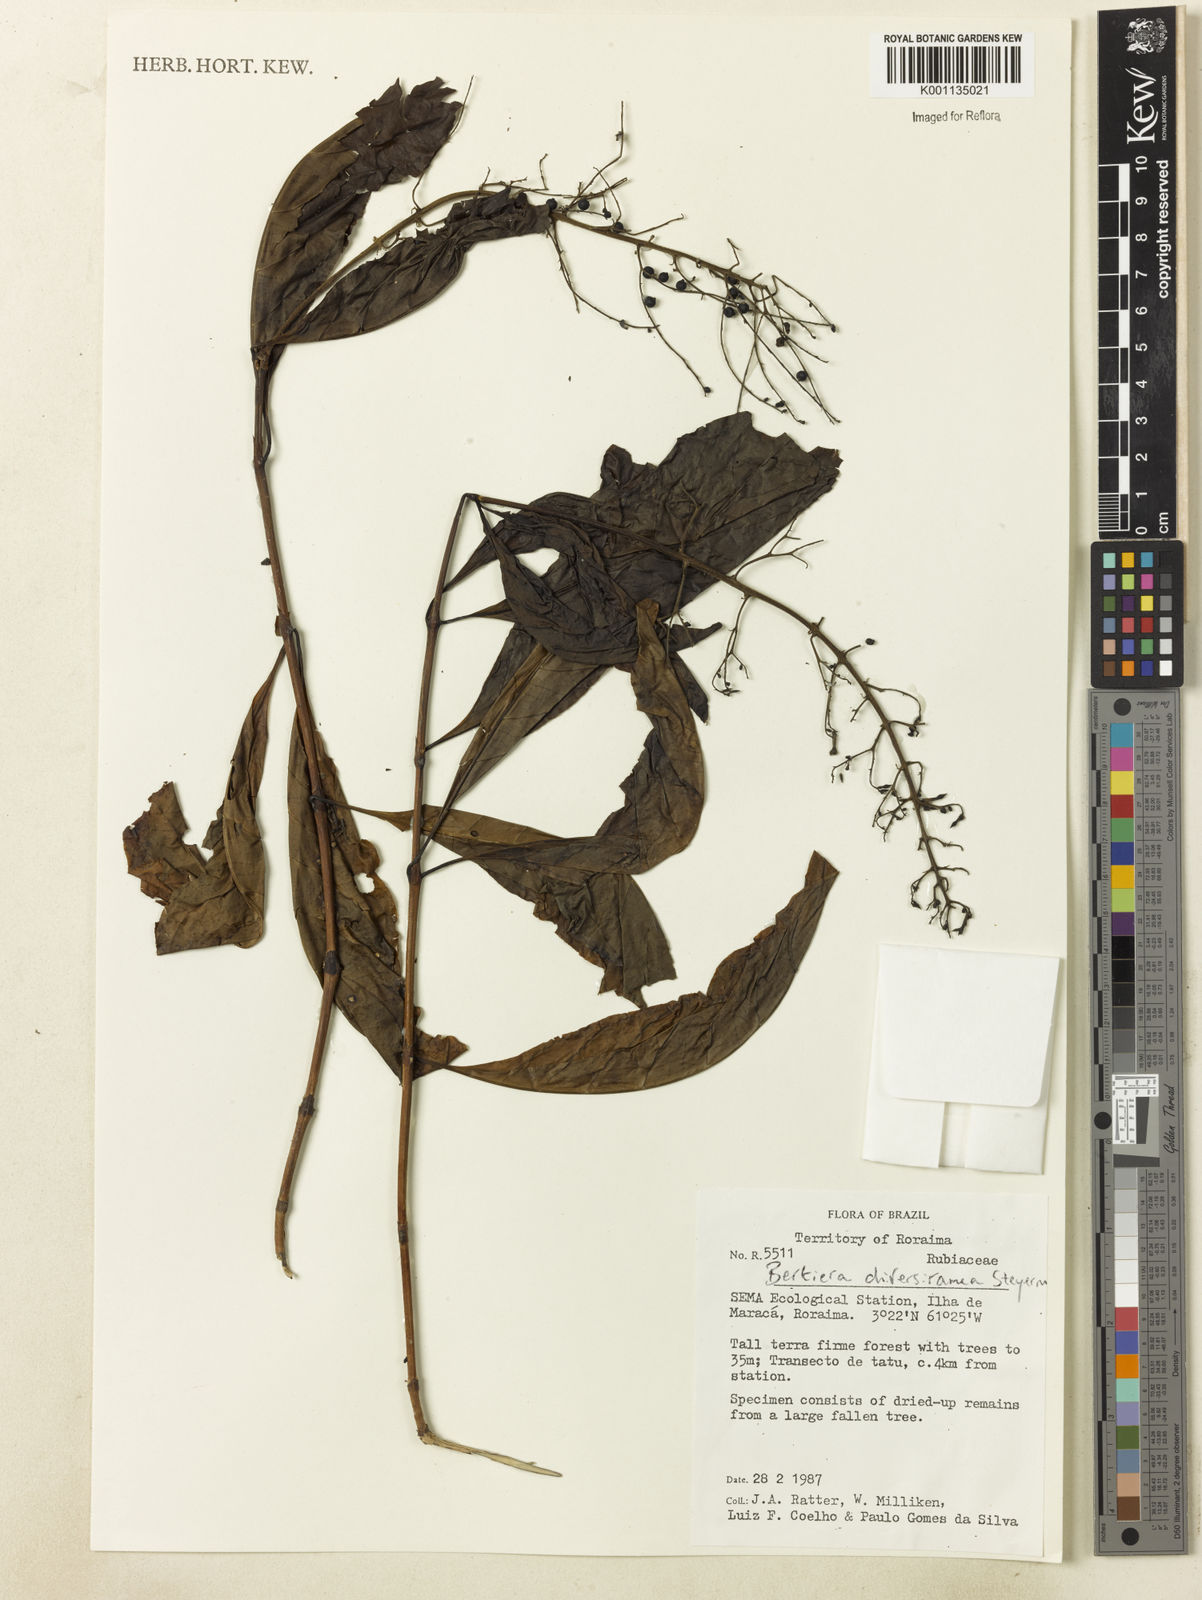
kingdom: Plantae
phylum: Tracheophyta
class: Magnoliopsida
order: Gentianales
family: Rubiaceae
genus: Bertiera
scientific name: Bertiera guianensis
